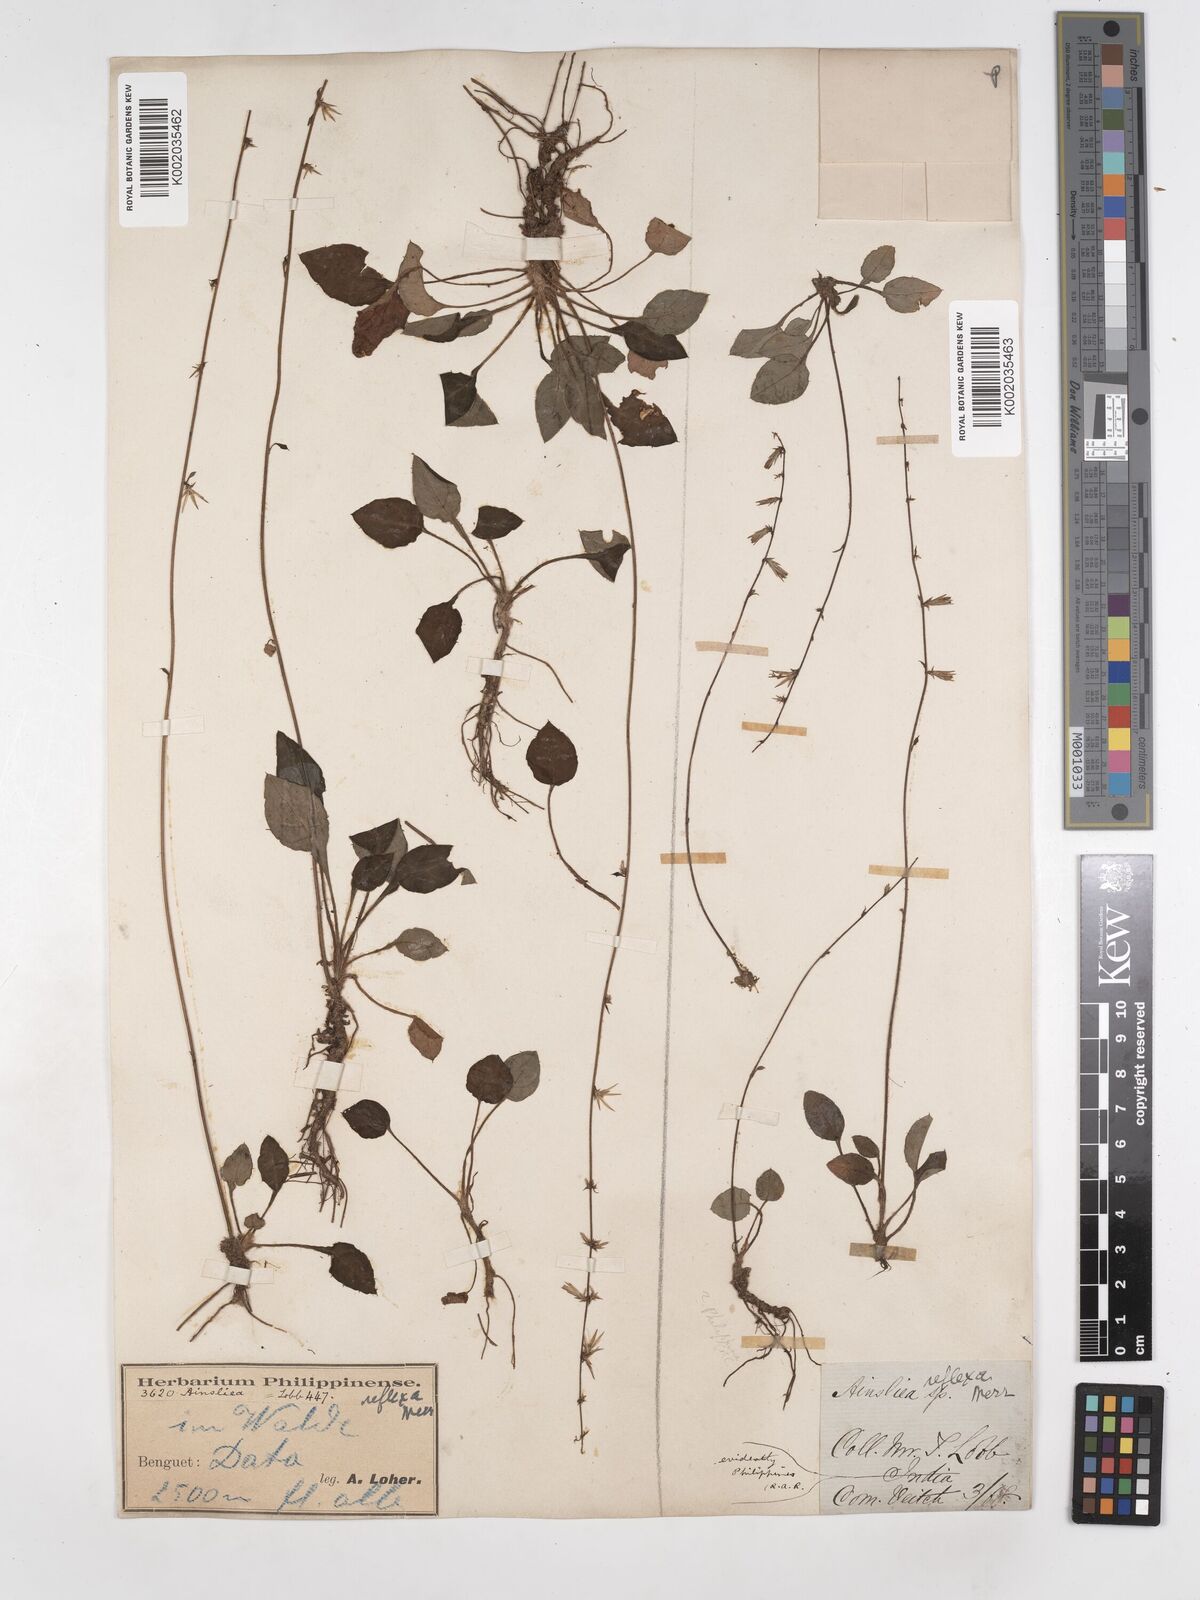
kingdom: Plantae
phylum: Tracheophyta
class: Magnoliopsida
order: Asterales
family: Asteraceae
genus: Ainsliaea
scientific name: Ainsliaea reflexa
